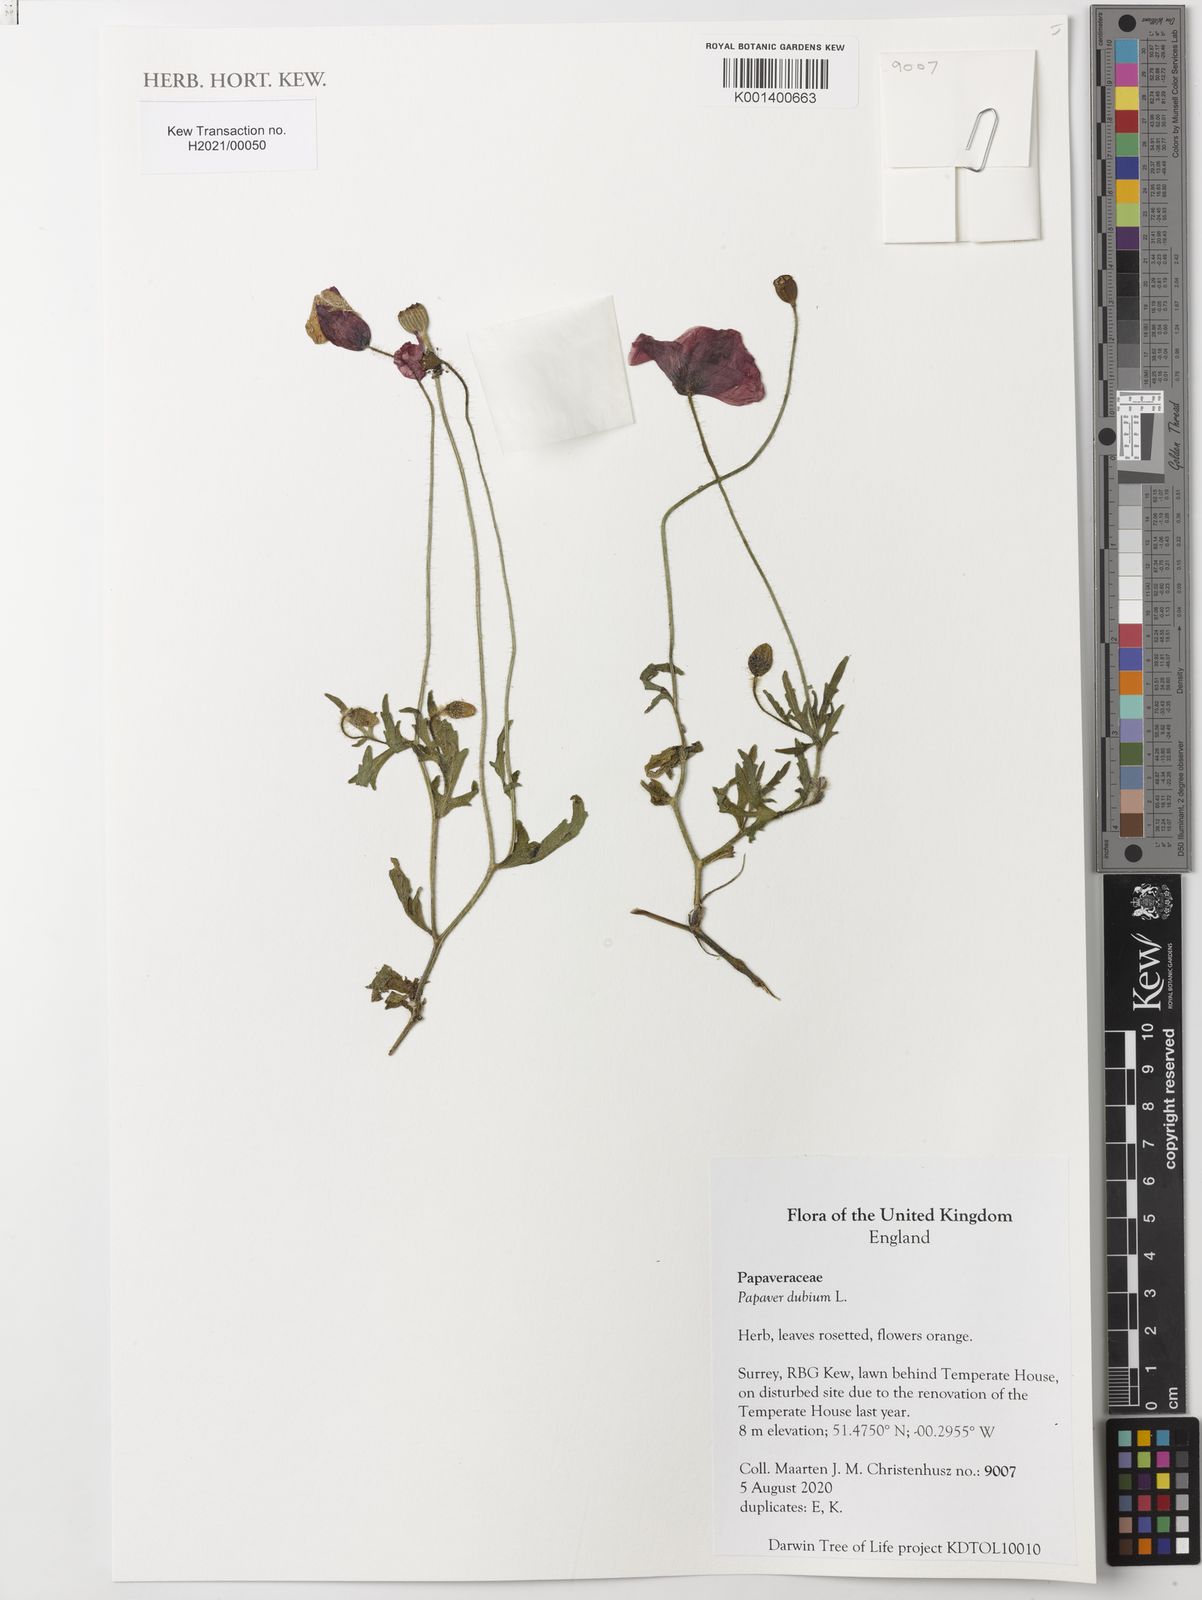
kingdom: Plantae
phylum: Tracheophyta
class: Magnoliopsida
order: Ranunculales
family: Papaveraceae
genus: Papaver
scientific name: Papaver dubium
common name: Long-headed poppy
